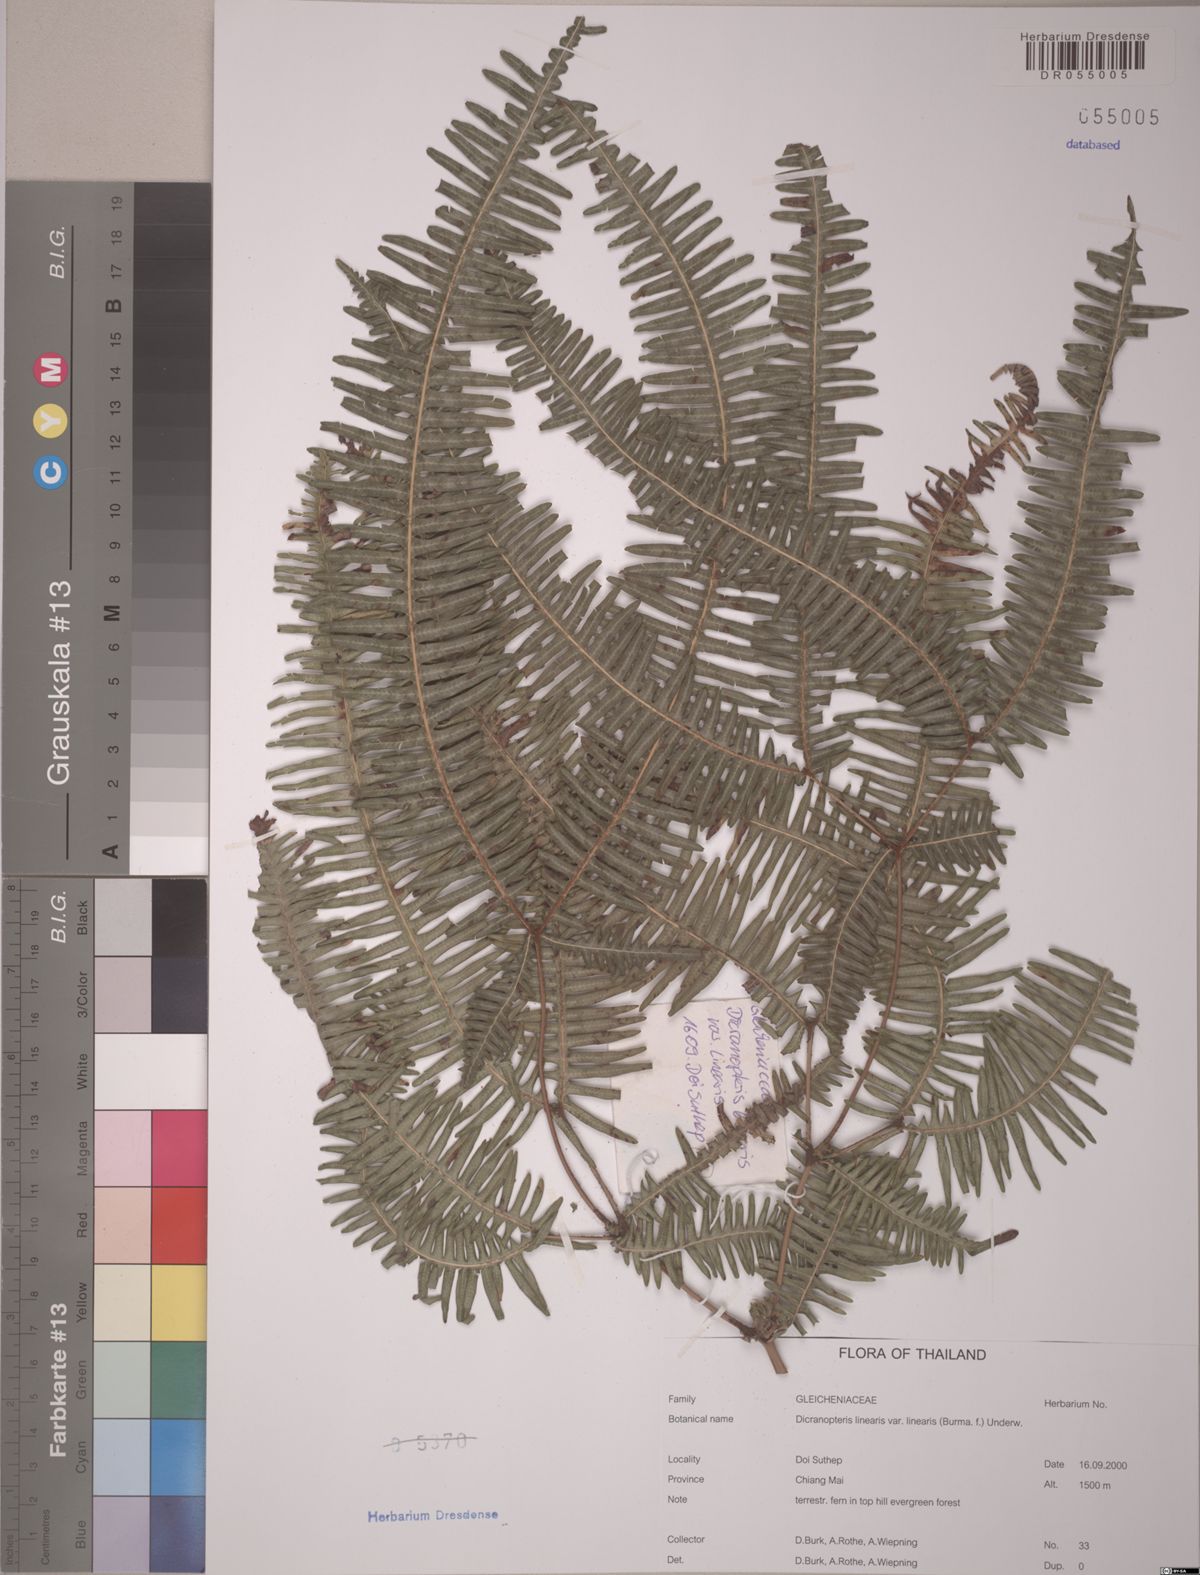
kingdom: Plantae
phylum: Tracheophyta
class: Polypodiopsida
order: Gleicheniales
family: Gleicheniaceae
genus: Dicranopteris
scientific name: Dicranopteris linearis
